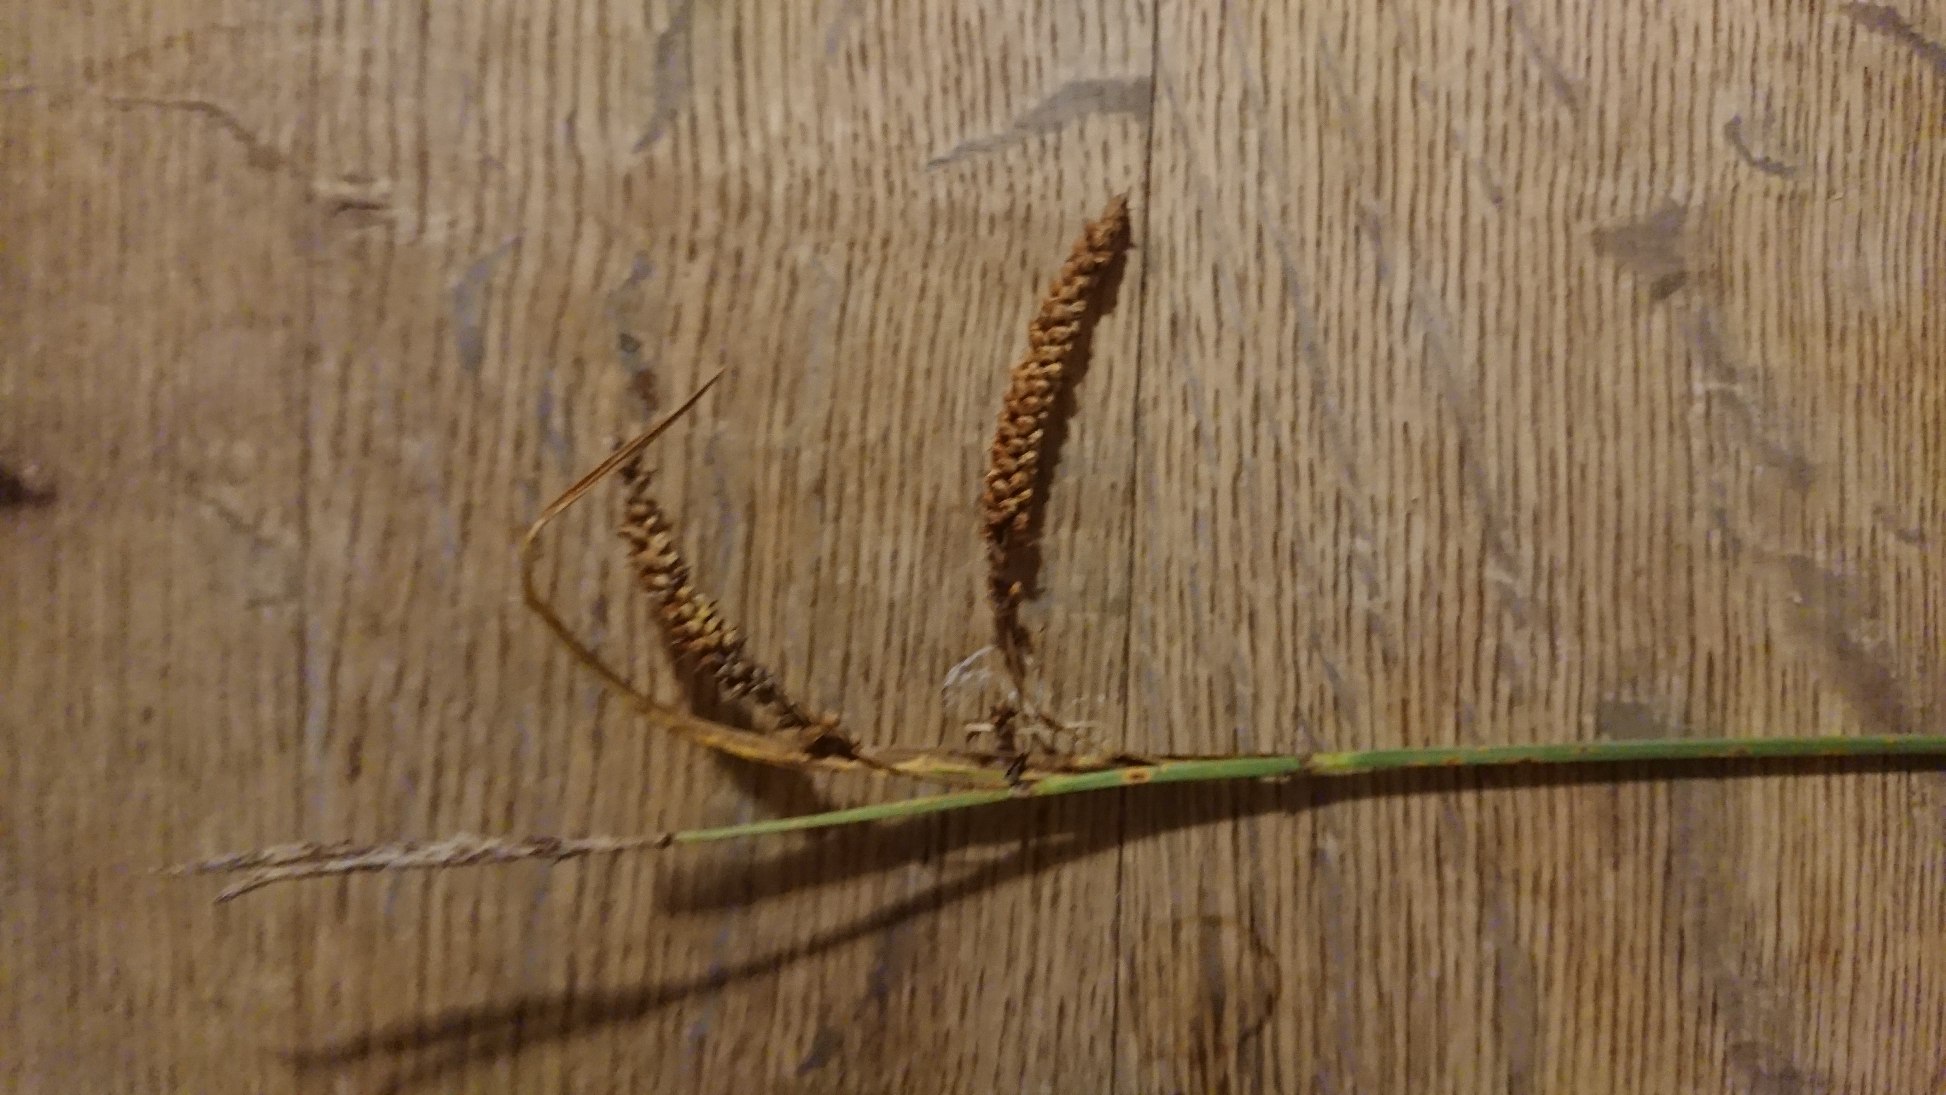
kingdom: Plantae
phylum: Tracheophyta
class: Liliopsida
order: Poales
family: Cyperaceae
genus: Carex
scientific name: Carex flacca
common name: Blågrøn star
